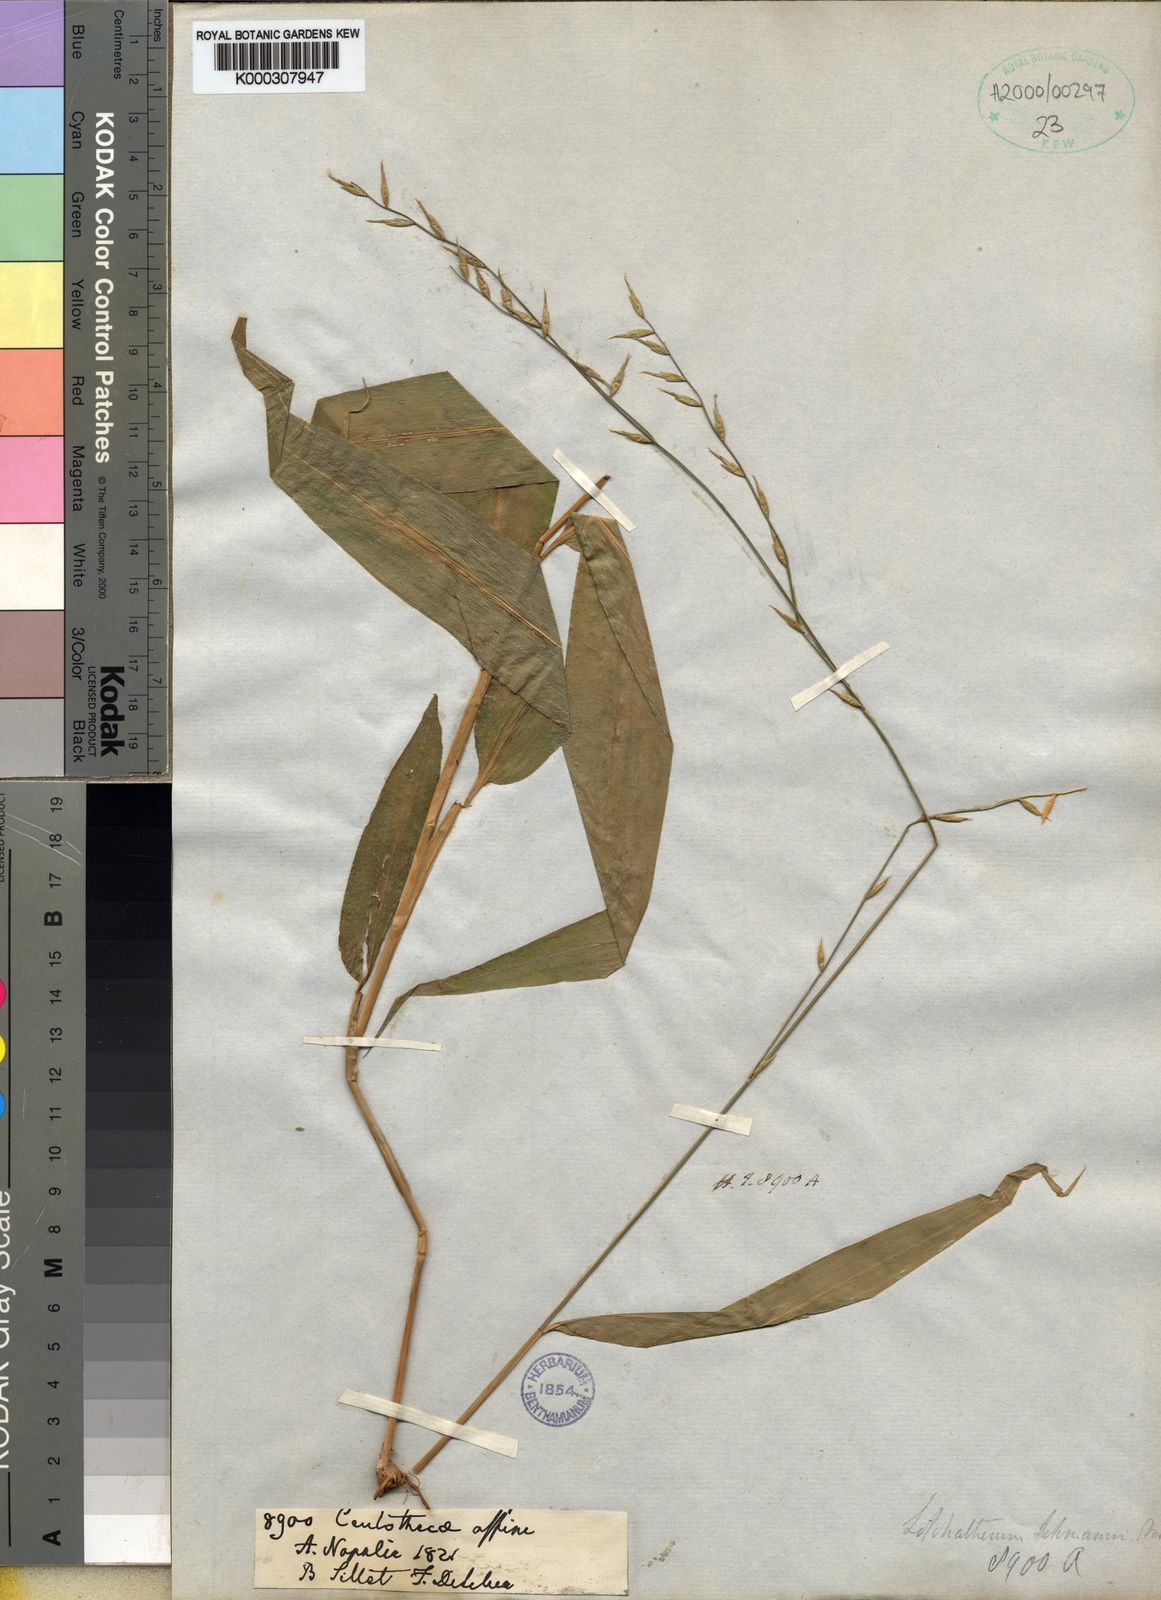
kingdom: Plantae
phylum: Tracheophyta
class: Liliopsida
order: Poales
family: Poaceae
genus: Lophatherum
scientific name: Lophatherum gracile
